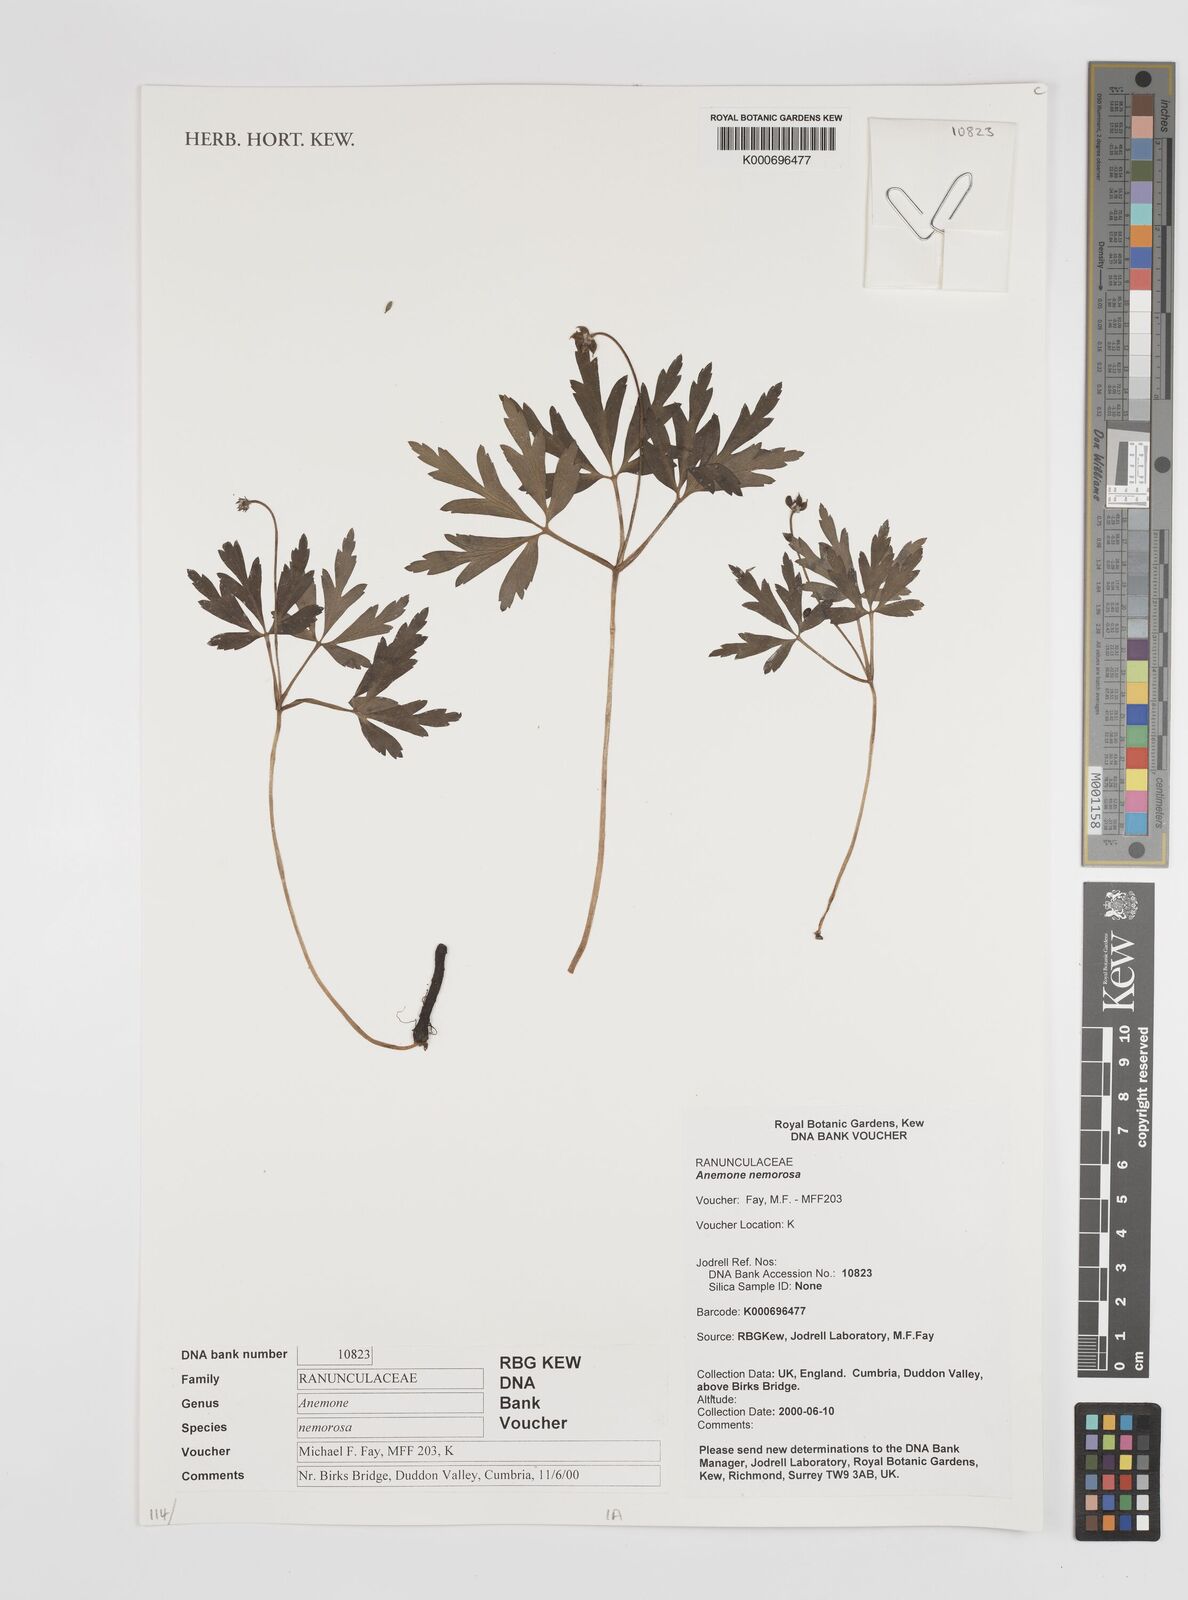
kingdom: Plantae
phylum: Tracheophyta
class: Magnoliopsida
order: Ranunculales
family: Ranunculaceae
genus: Anemone
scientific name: Anemone nemorosa
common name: Wood anemone
